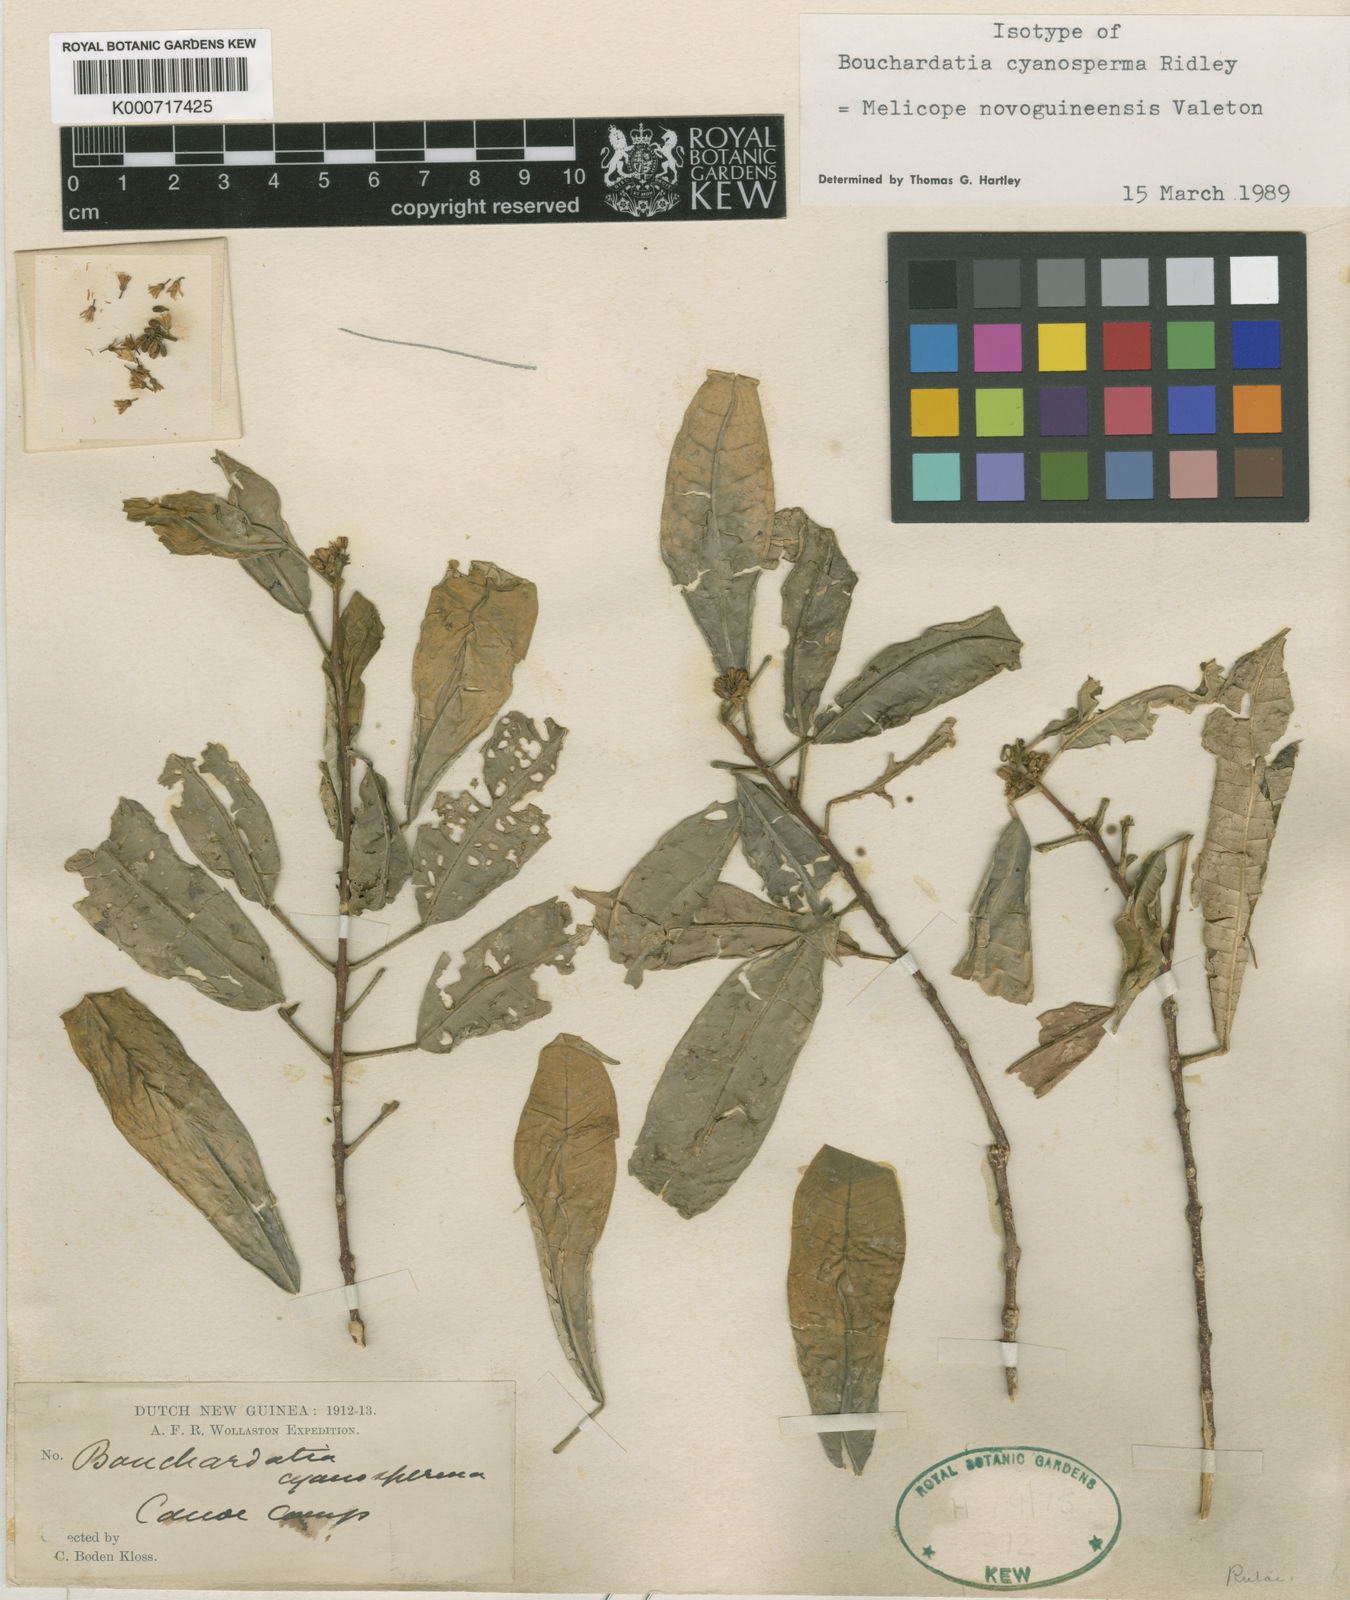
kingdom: Plantae
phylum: Tracheophyta
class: Magnoliopsida
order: Sapindales
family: Rutaceae
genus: Melicope
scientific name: Melicope novoguineensis
